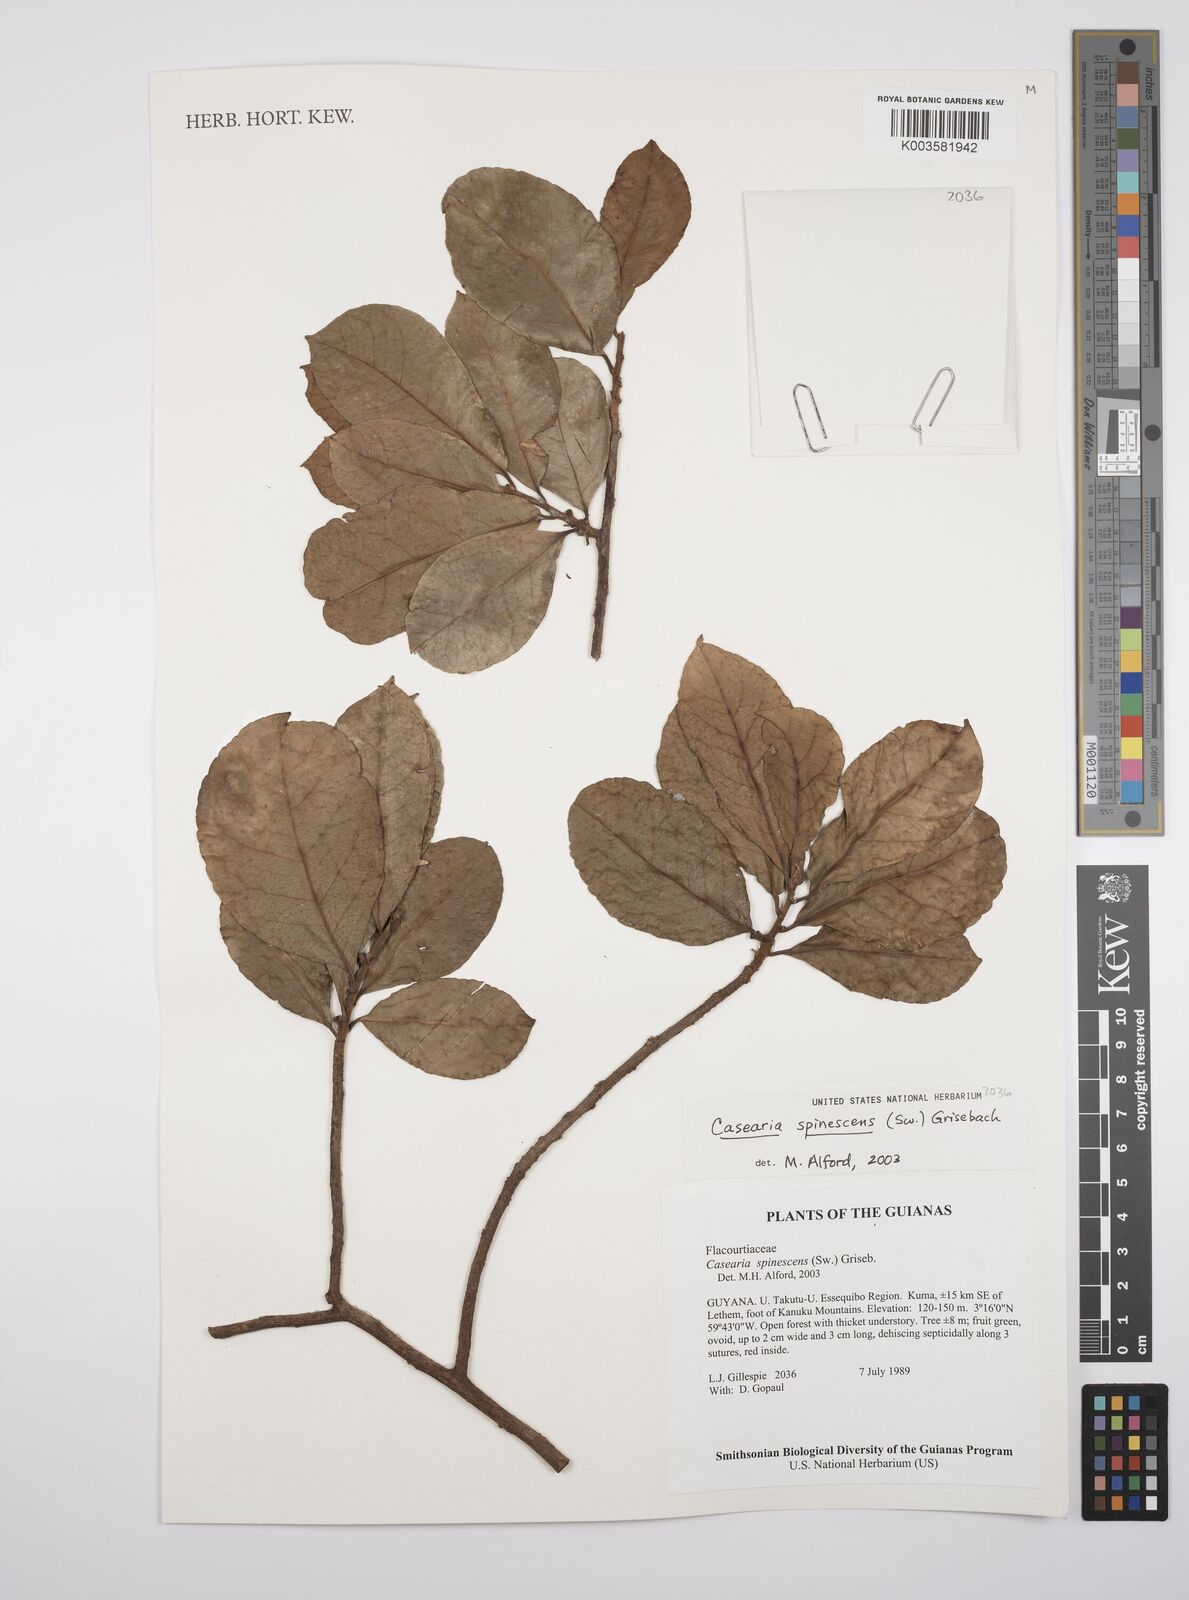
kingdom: Plantae
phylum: Tracheophyta
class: Magnoliopsida
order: Malpighiales
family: Salicaceae
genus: Casearia
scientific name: Casearia spinescens
